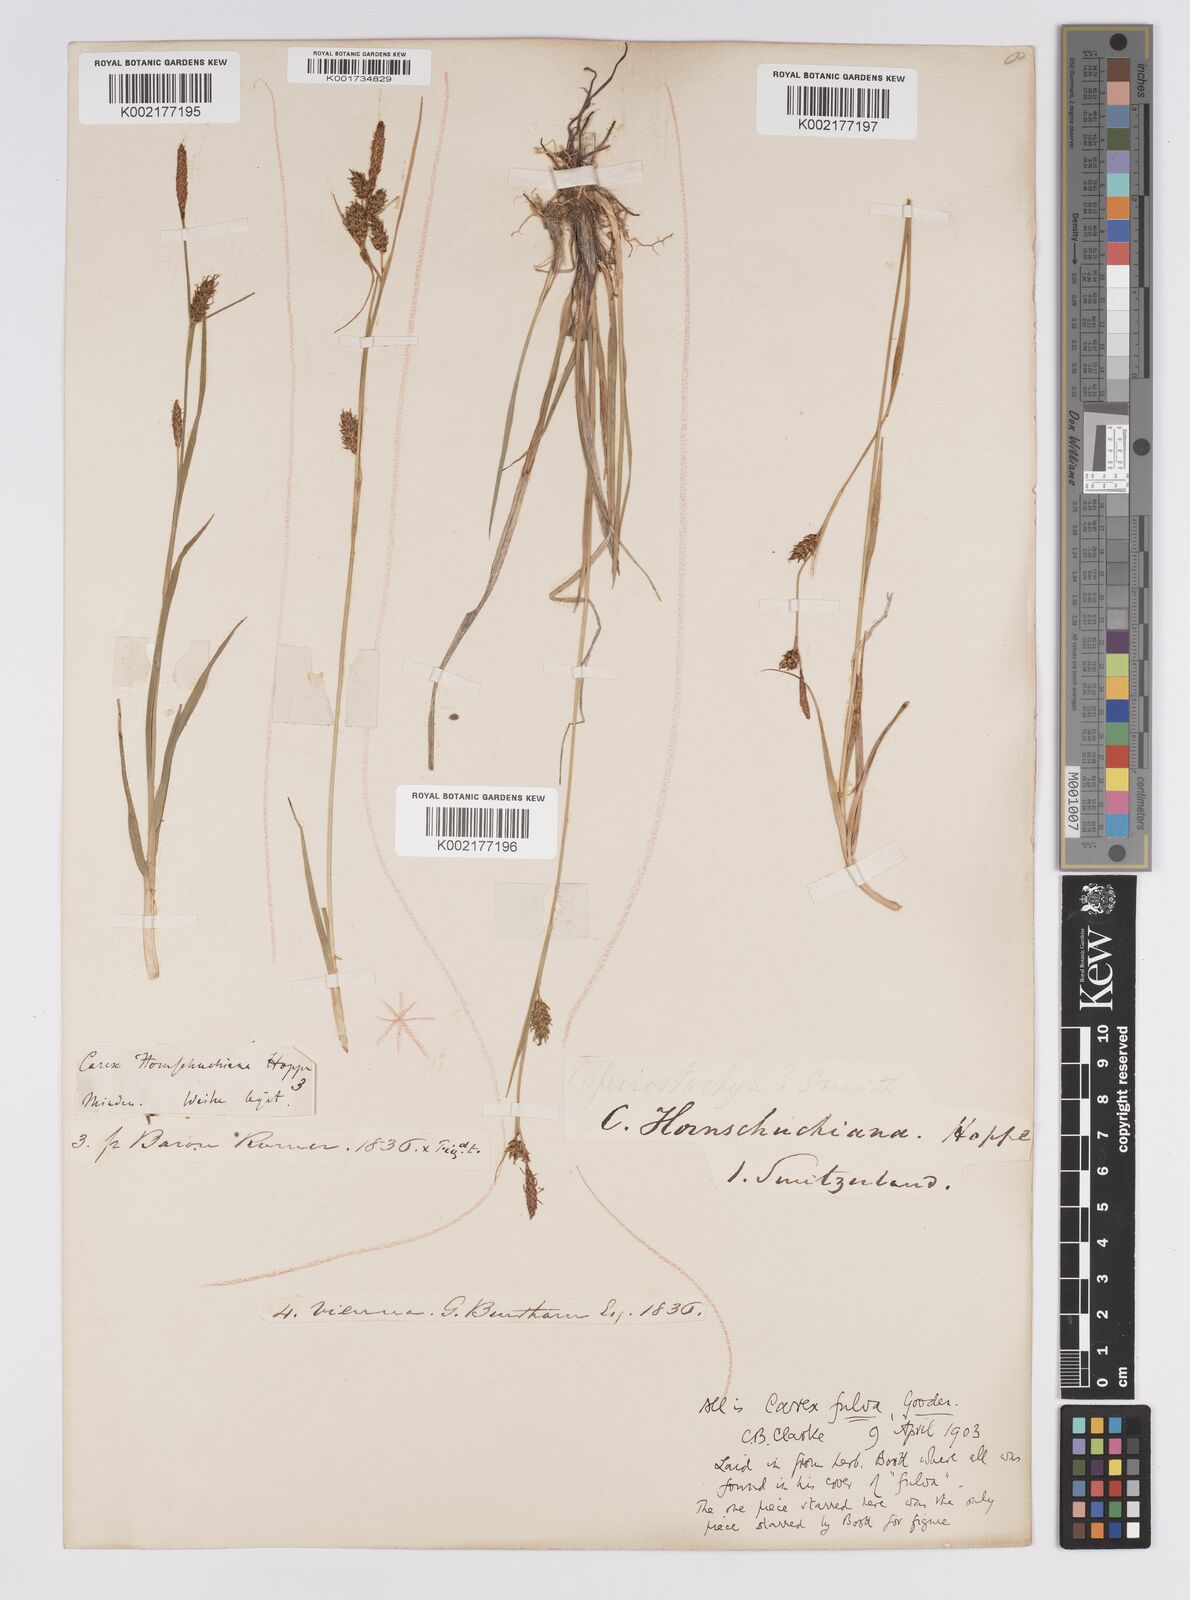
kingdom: Plantae
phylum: Tracheophyta
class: Liliopsida
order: Poales
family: Cyperaceae
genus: Carex
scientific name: Carex hostiana
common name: Tawny sedge
